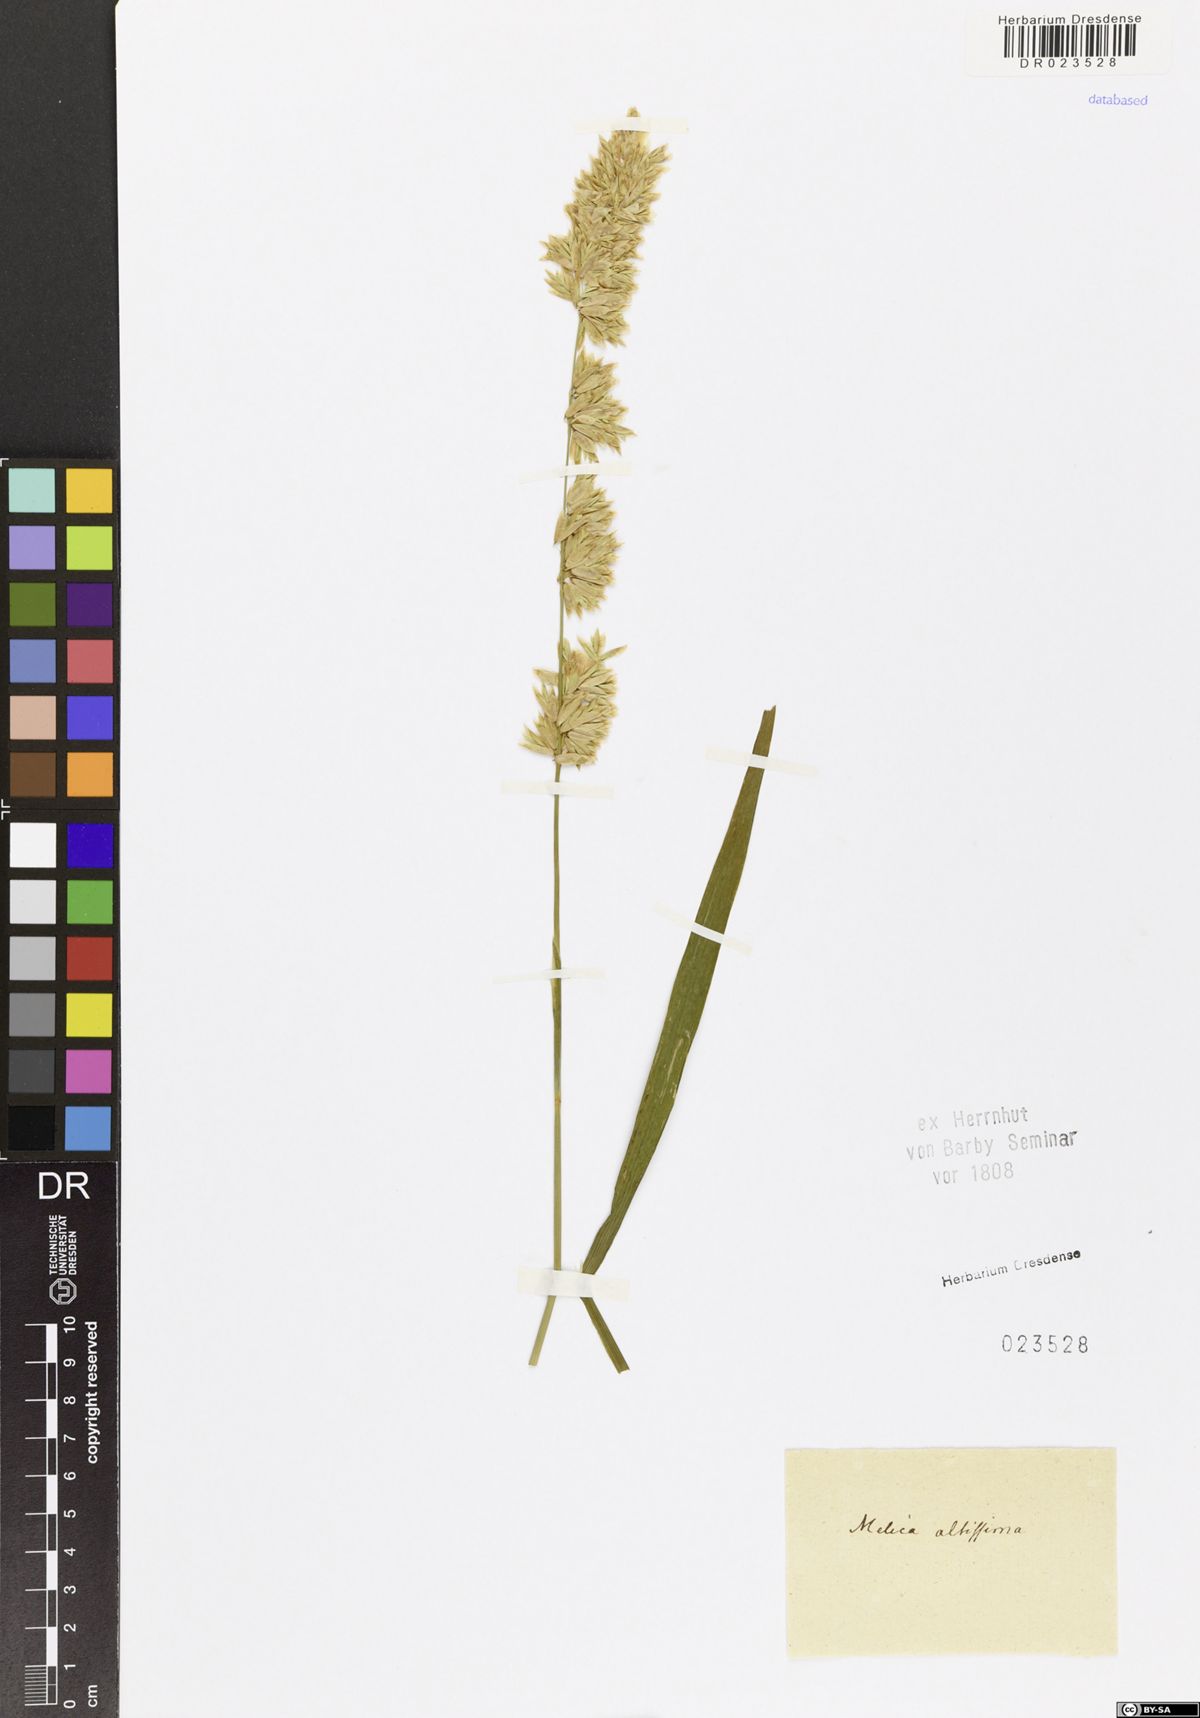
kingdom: Plantae
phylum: Tracheophyta
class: Liliopsida
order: Poales
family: Poaceae
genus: Melica
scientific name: Melica altissima
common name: Siberian melicgrass
